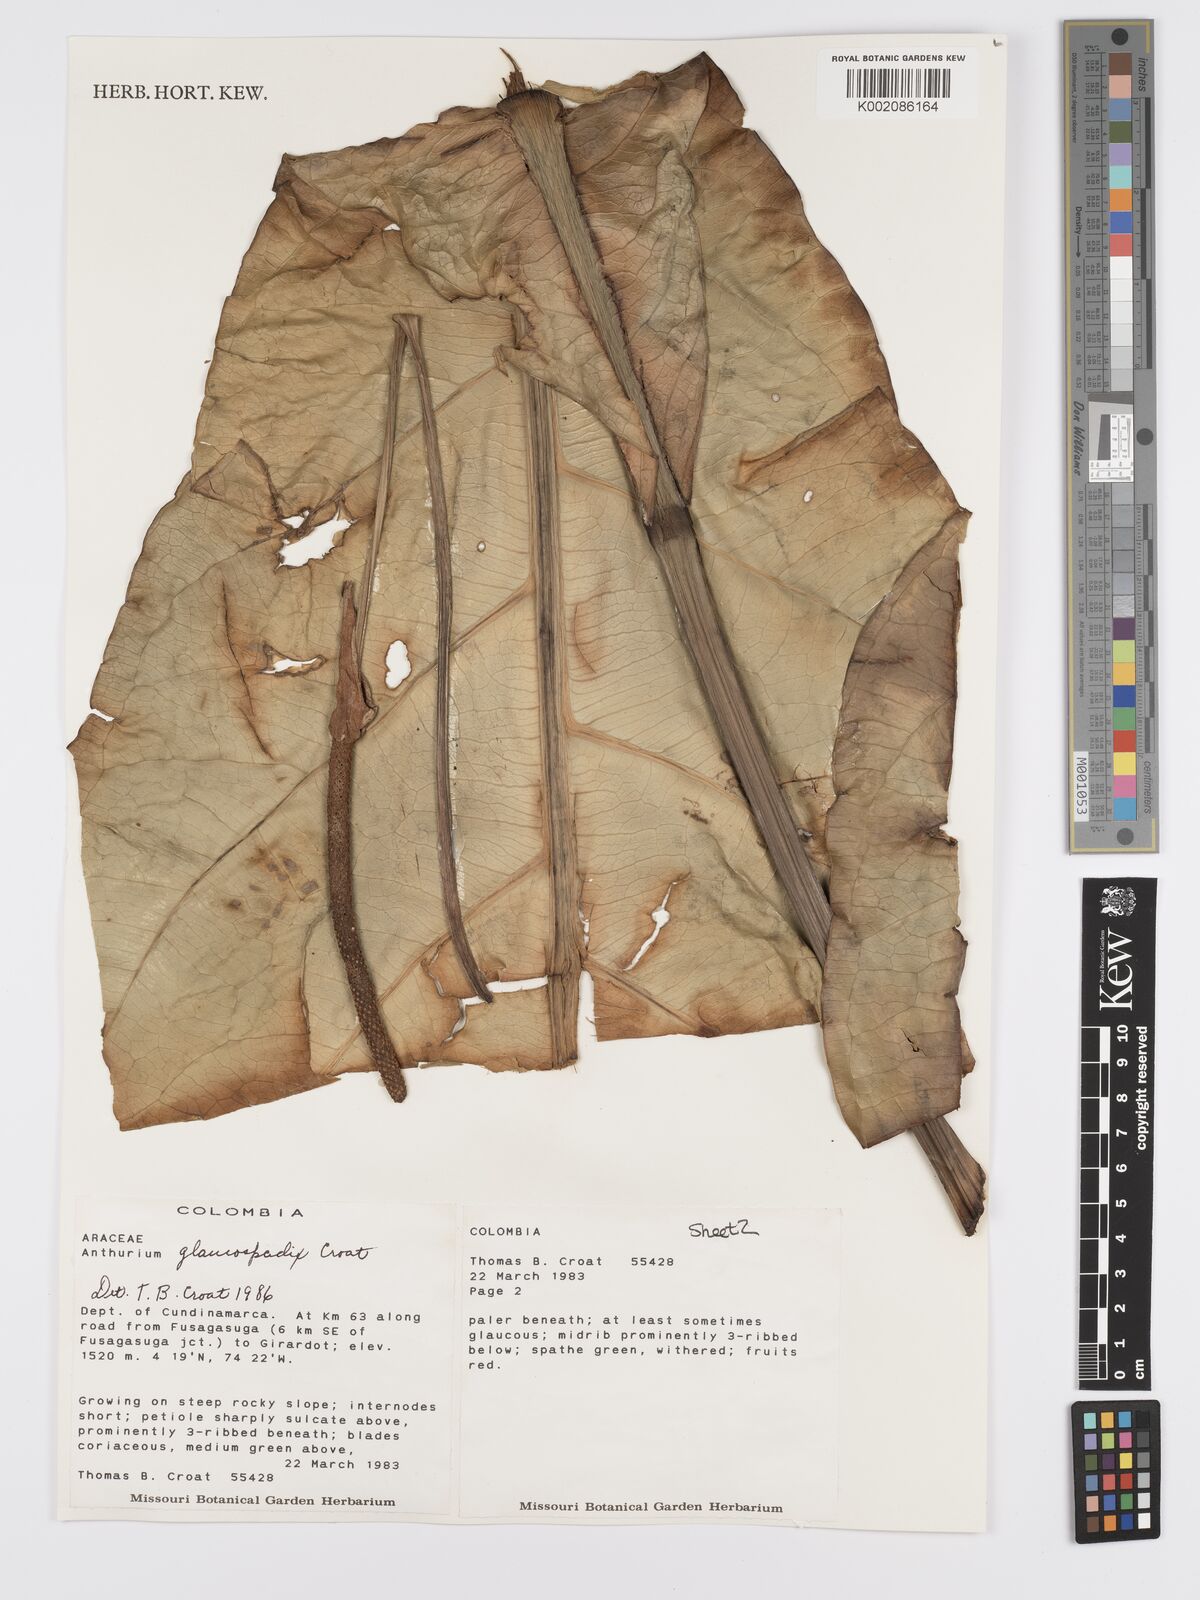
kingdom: Plantae
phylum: Tracheophyta
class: Liliopsida
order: Alismatales
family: Araceae
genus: Anthurium
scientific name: Anthurium glaucospadix
